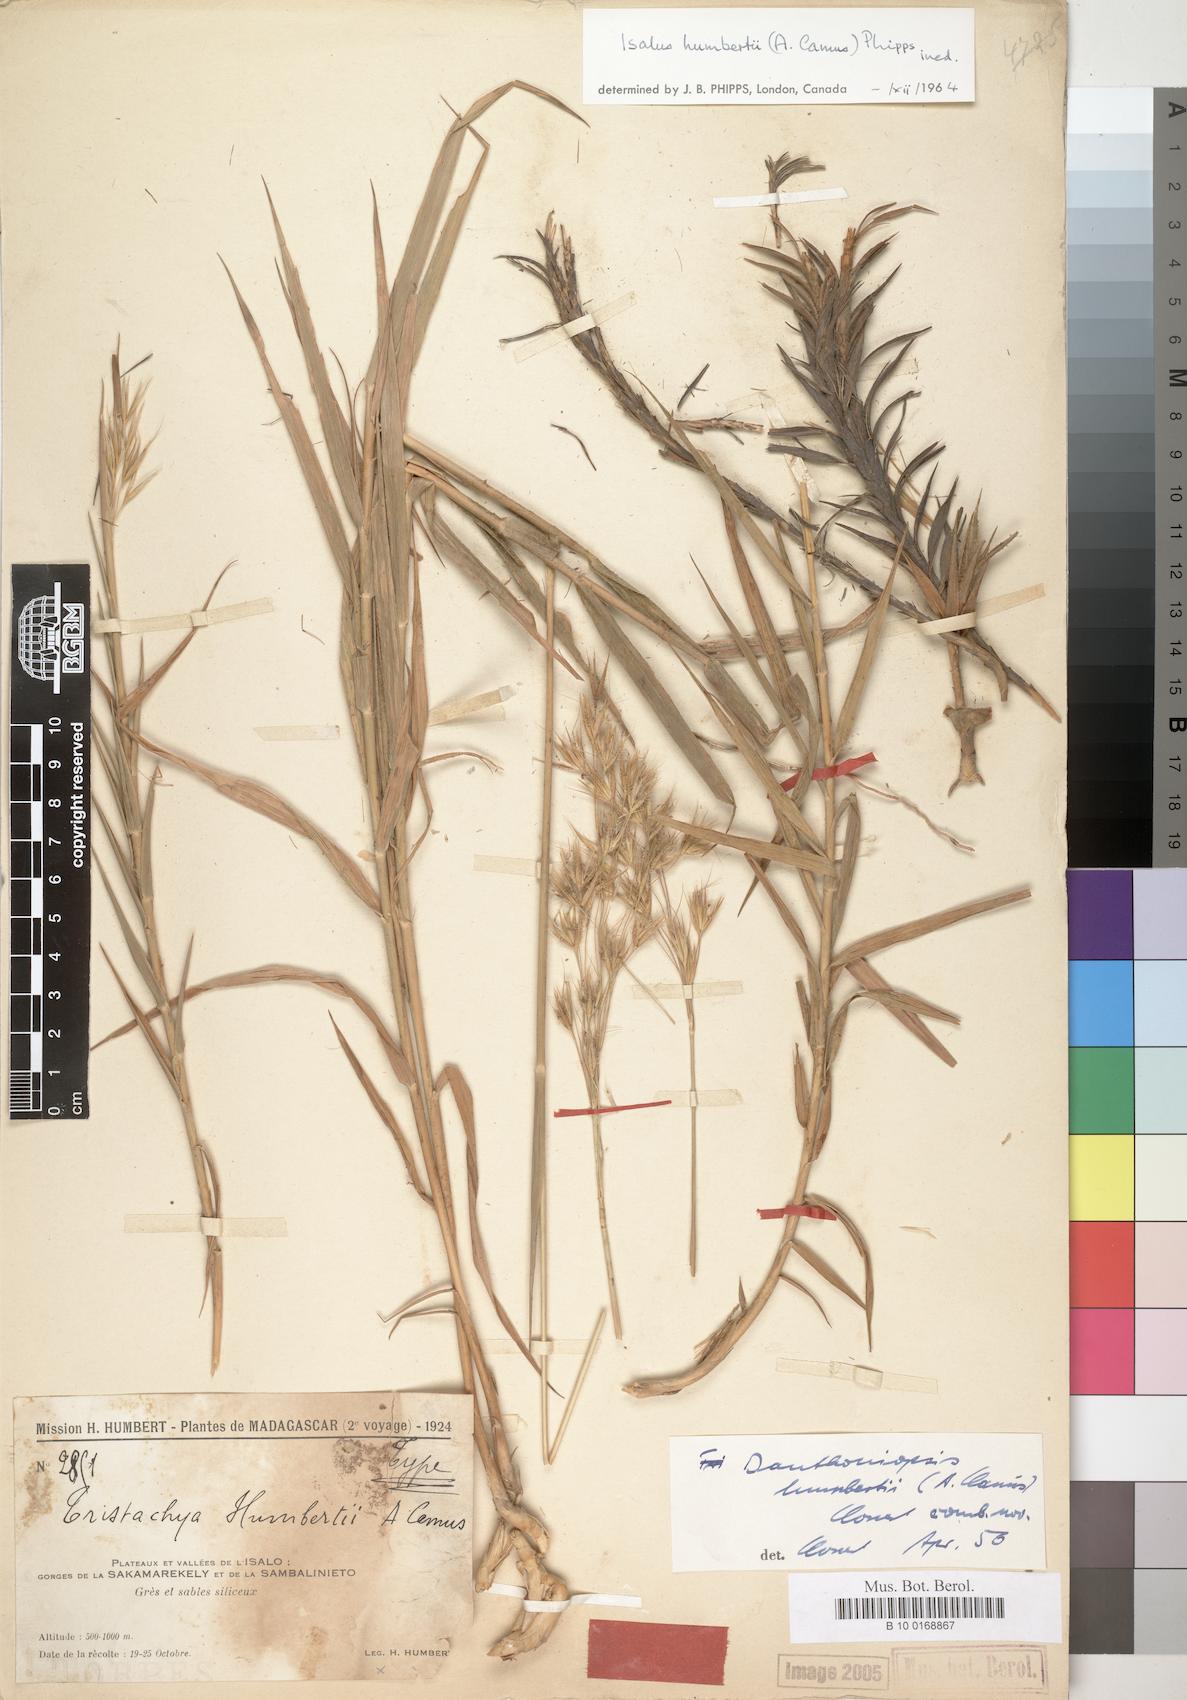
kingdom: Plantae
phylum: Tracheophyta
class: Liliopsida
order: Poales
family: Poaceae
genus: Tristachya
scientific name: Tristachya humbertii
